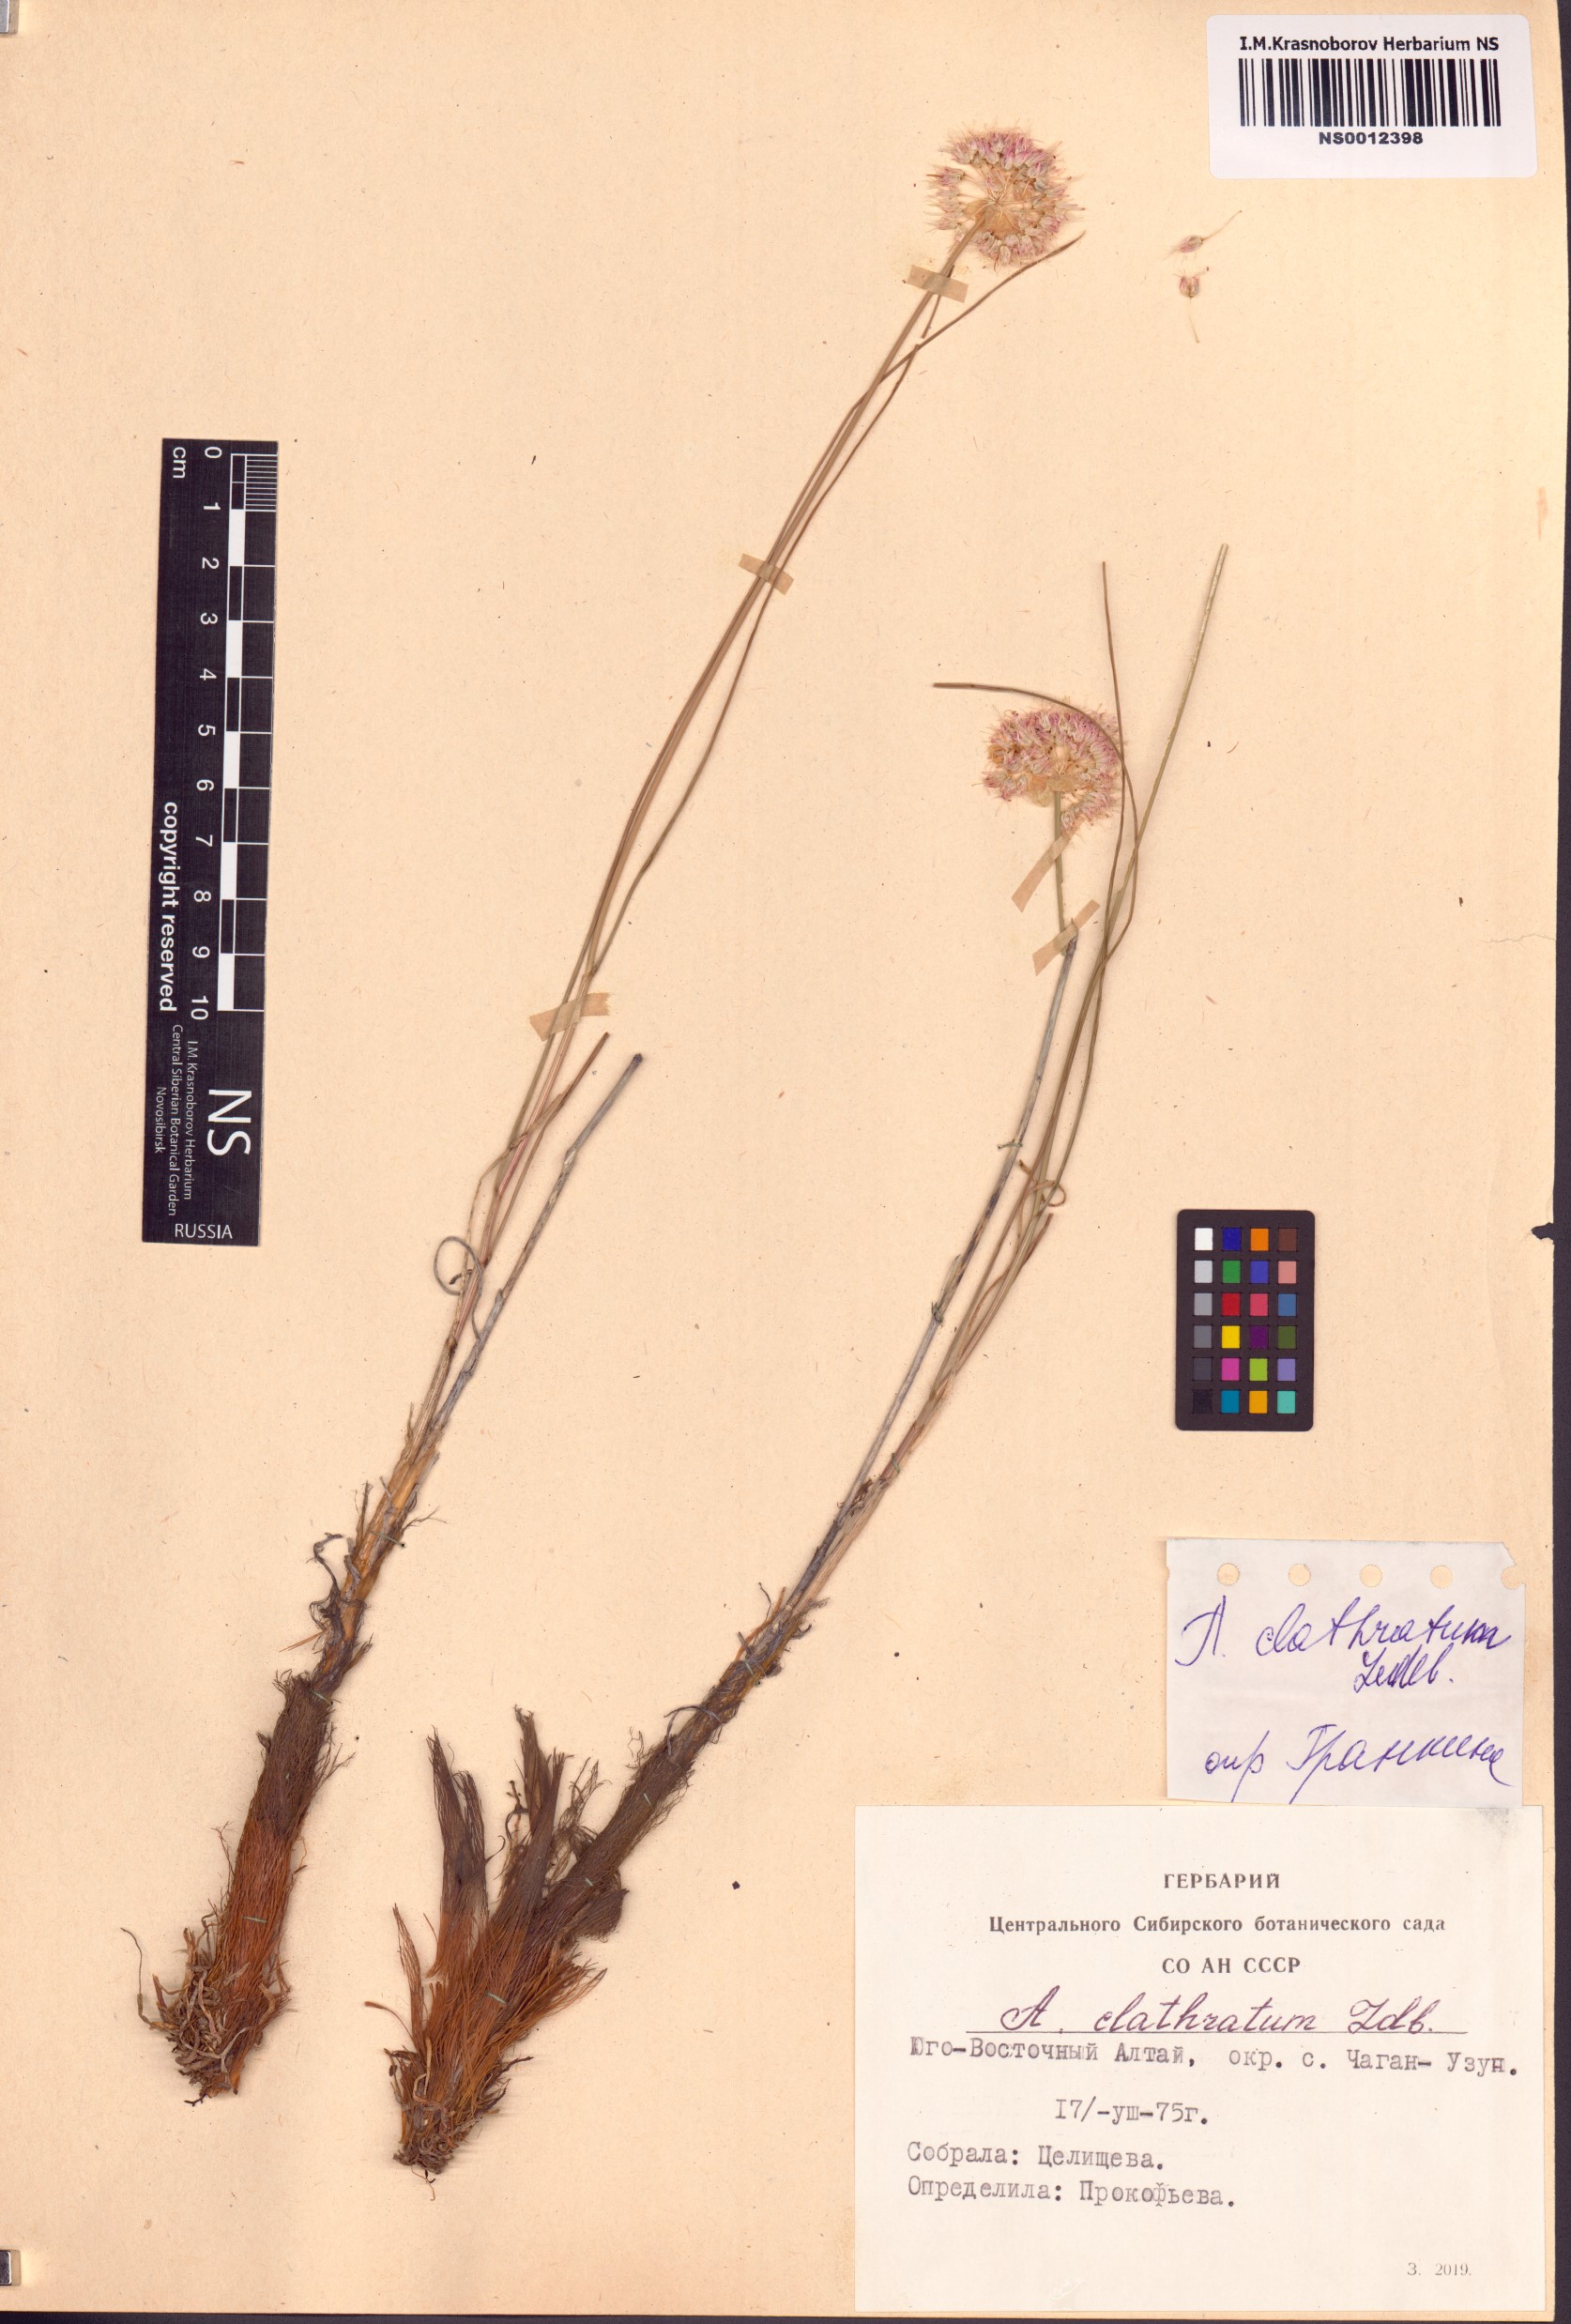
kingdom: Plantae
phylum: Tracheophyta
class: Liliopsida
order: Asparagales
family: Amaryllidaceae
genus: Allium
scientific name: Allium clathratum
